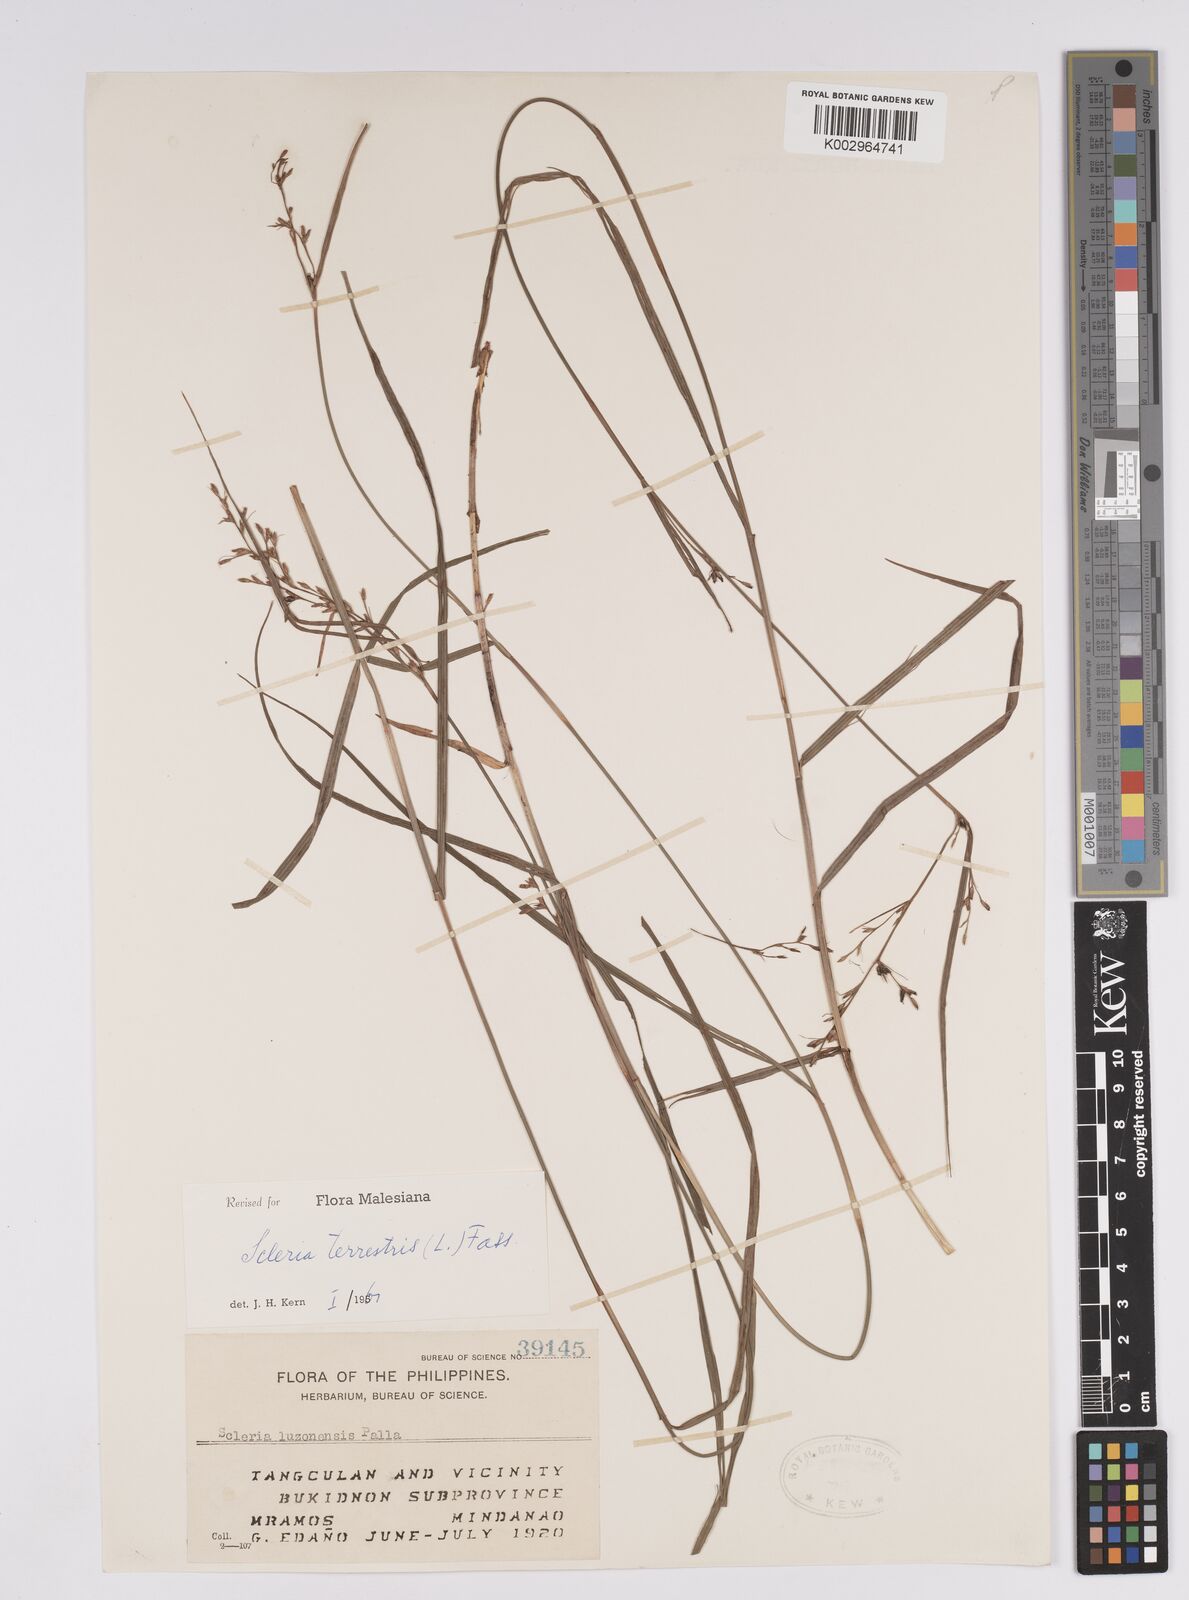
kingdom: Plantae
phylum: Tracheophyta
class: Liliopsida
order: Poales
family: Cyperaceae
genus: Scleria
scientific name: Scleria terrestris
